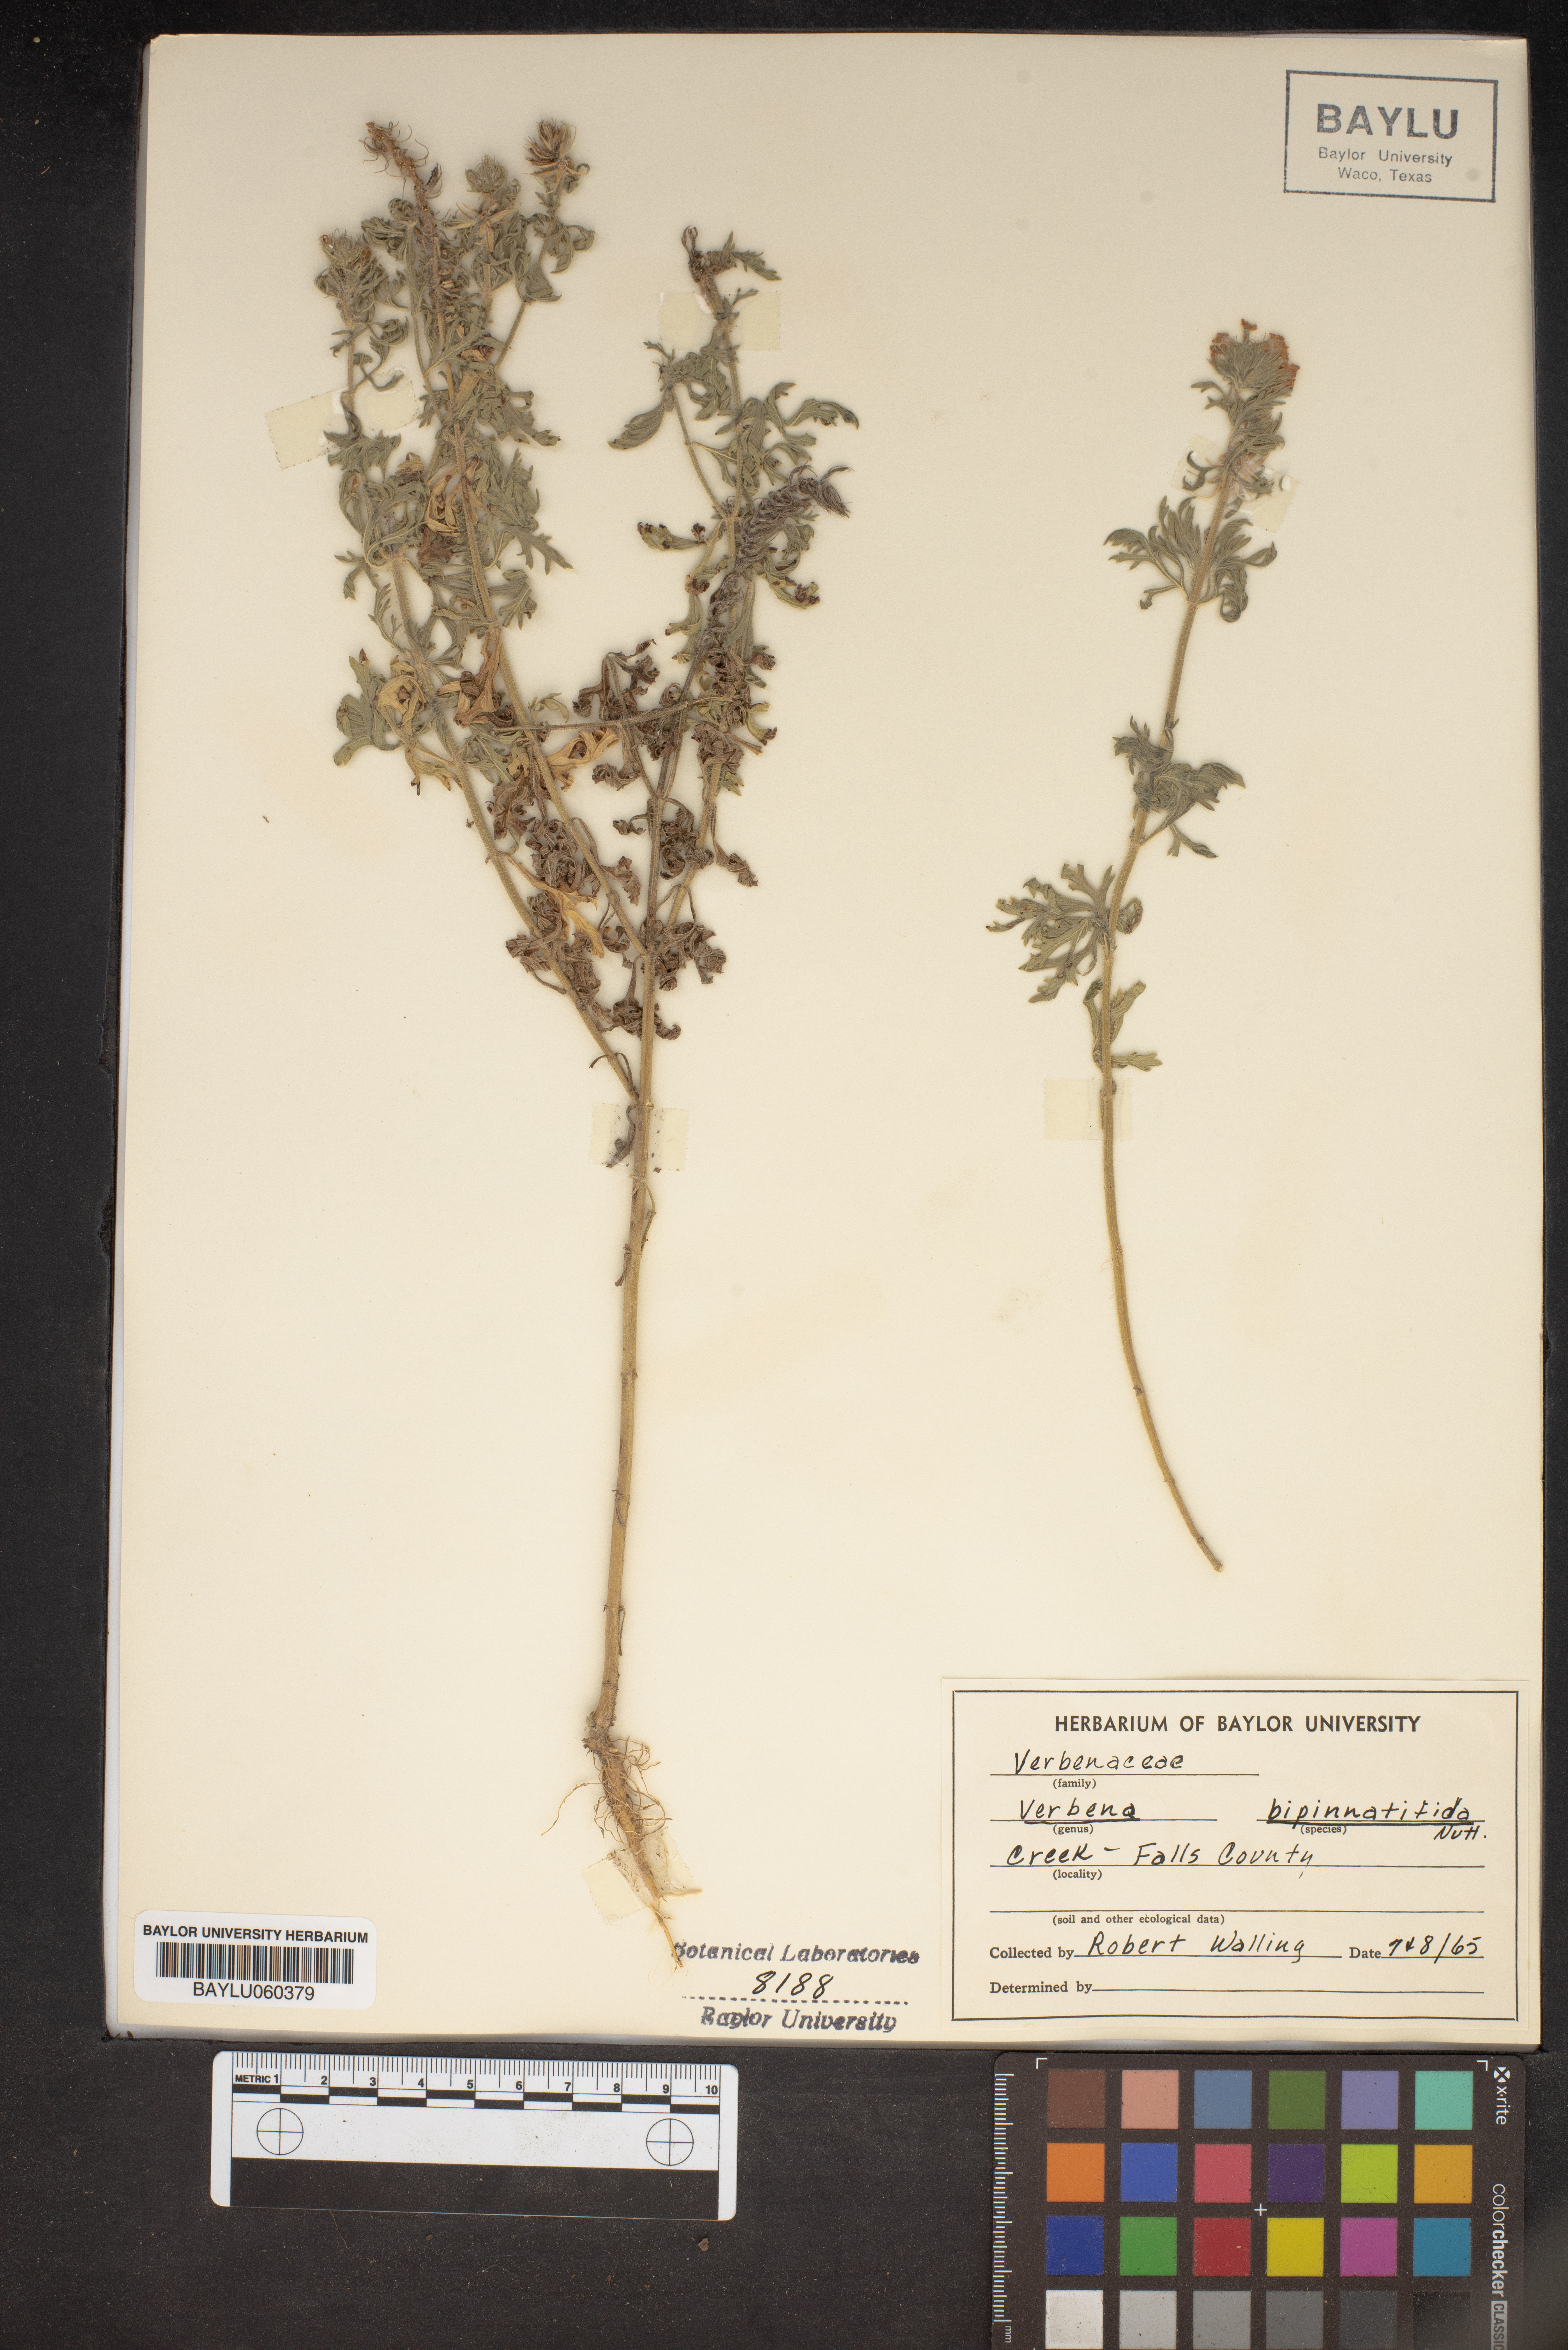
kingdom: Plantae
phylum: Tracheophyta
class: Magnoliopsida
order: Lamiales
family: Verbenaceae
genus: Verbena
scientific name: Verbena bipinnatifida
